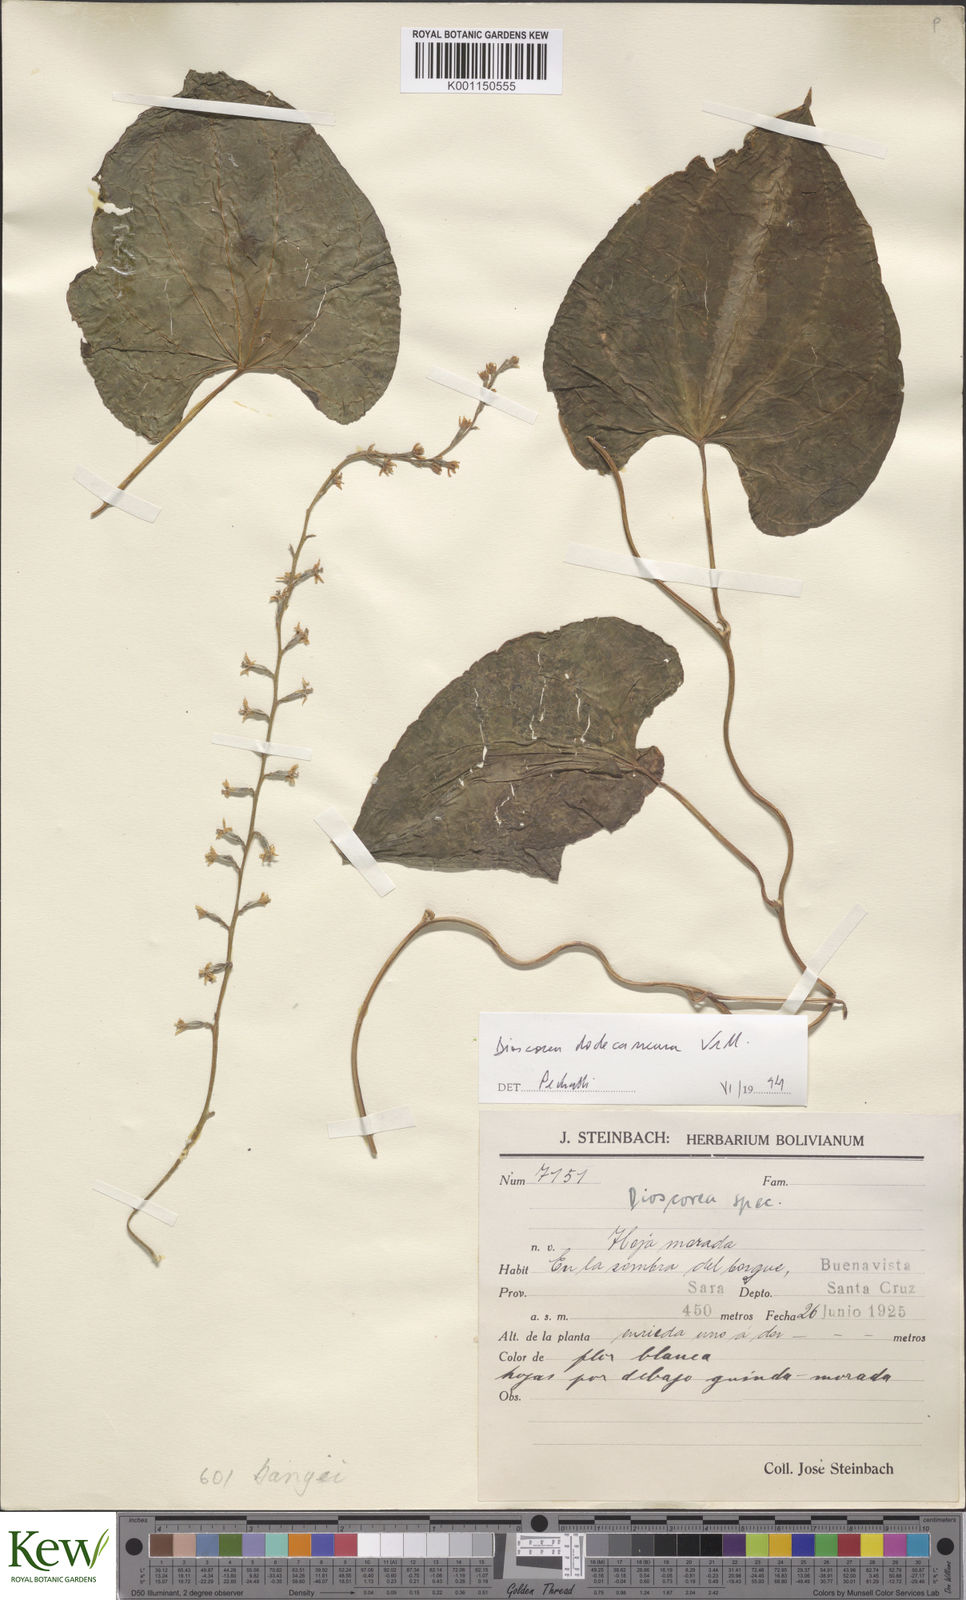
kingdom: Plantae
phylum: Tracheophyta
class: Liliopsida
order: Dioscoreales
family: Dioscoreaceae
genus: Dioscorea
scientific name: Dioscorea dodecaneura
